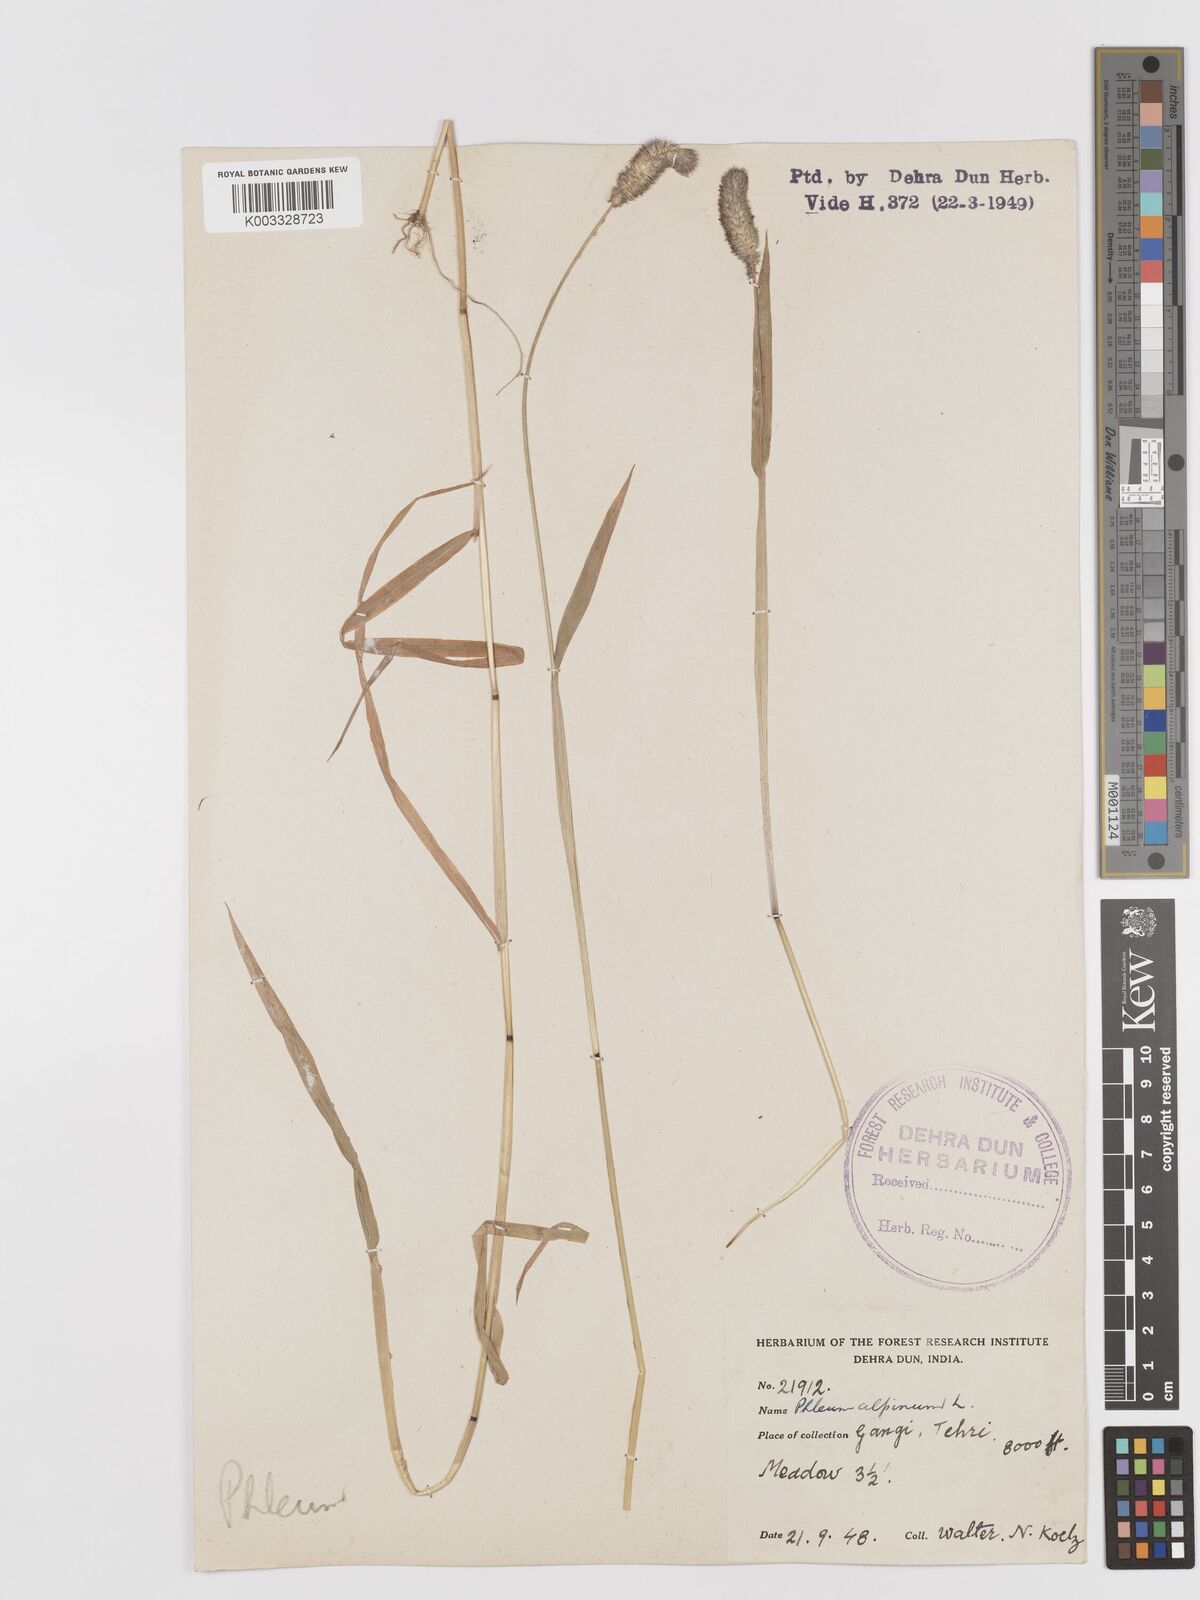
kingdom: Plantae
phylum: Tracheophyta
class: Liliopsida
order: Poales
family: Poaceae
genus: Phleum
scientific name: Phleum alpinum
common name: Alpine cat's-tail
